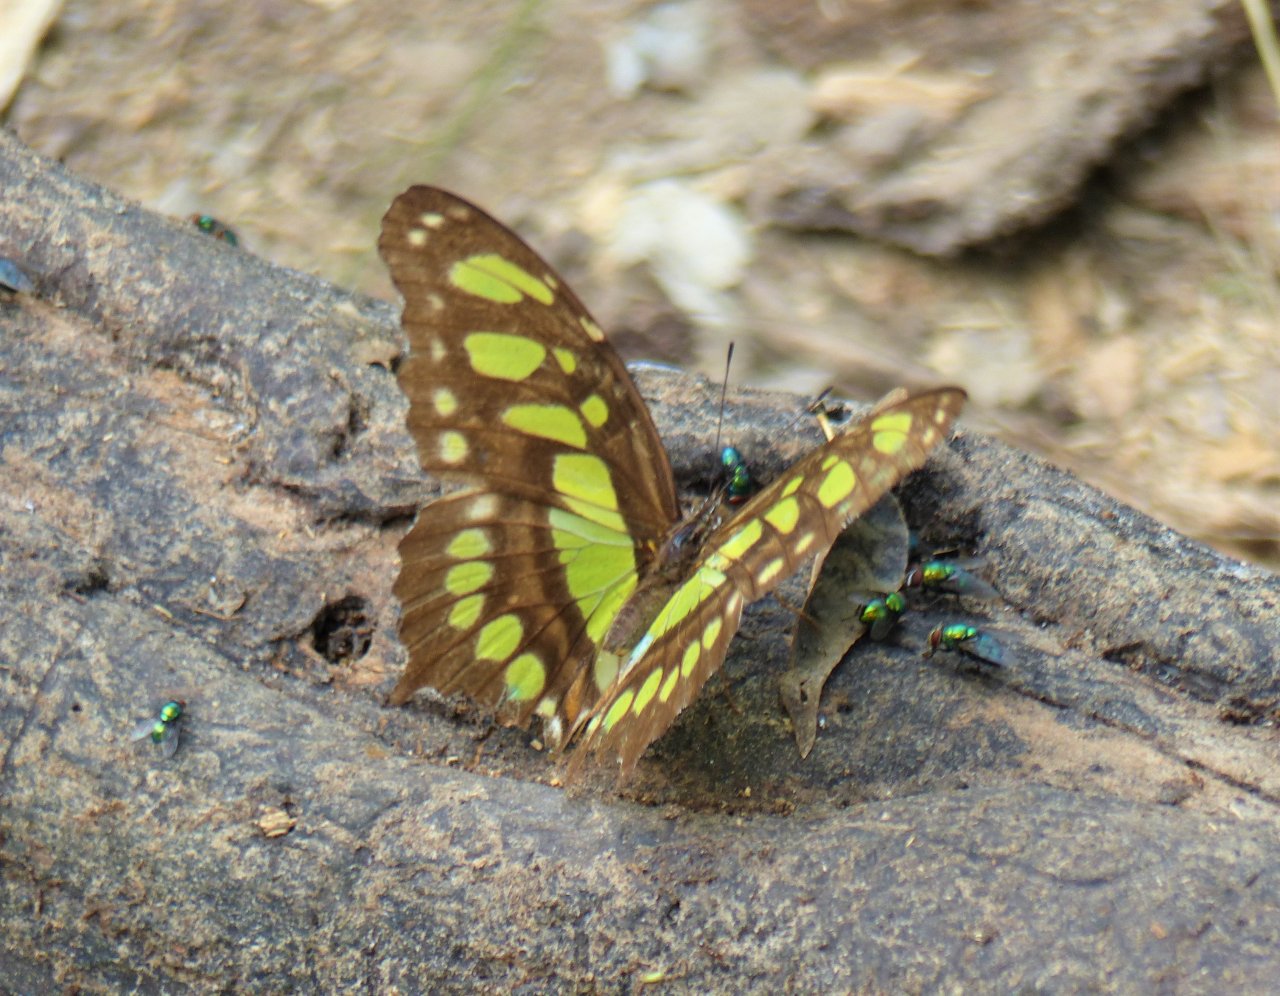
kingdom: Animalia
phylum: Arthropoda
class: Insecta
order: Lepidoptera
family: Nymphalidae
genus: Siproeta
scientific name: Siproeta stelenes
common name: Malachite
